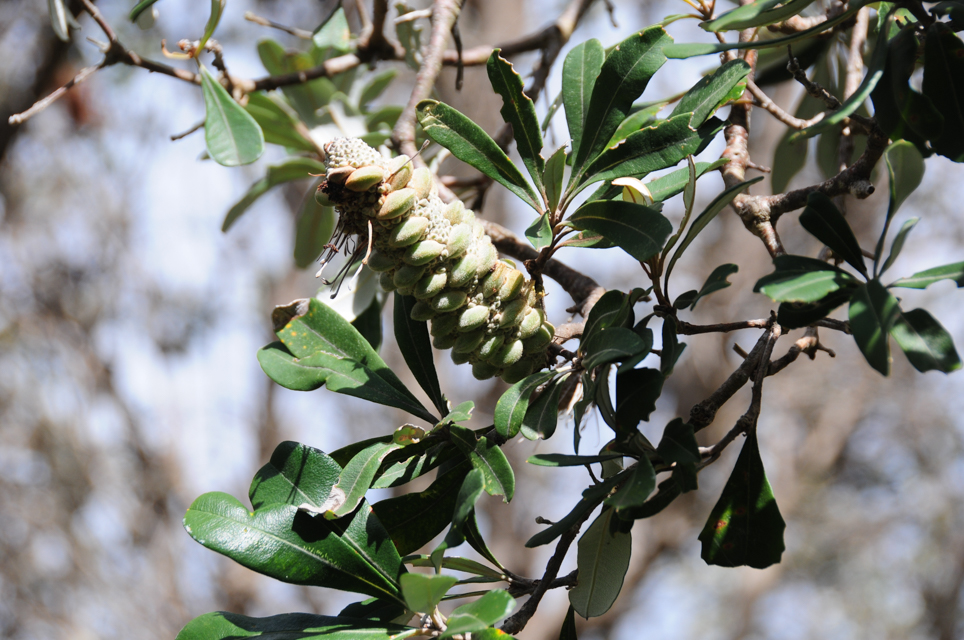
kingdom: Plantae
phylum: Tracheophyta
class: Magnoliopsida
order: Proteales
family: Proteaceae
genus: Banksia
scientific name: Banksia integrifolia
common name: White-honeysuckle
